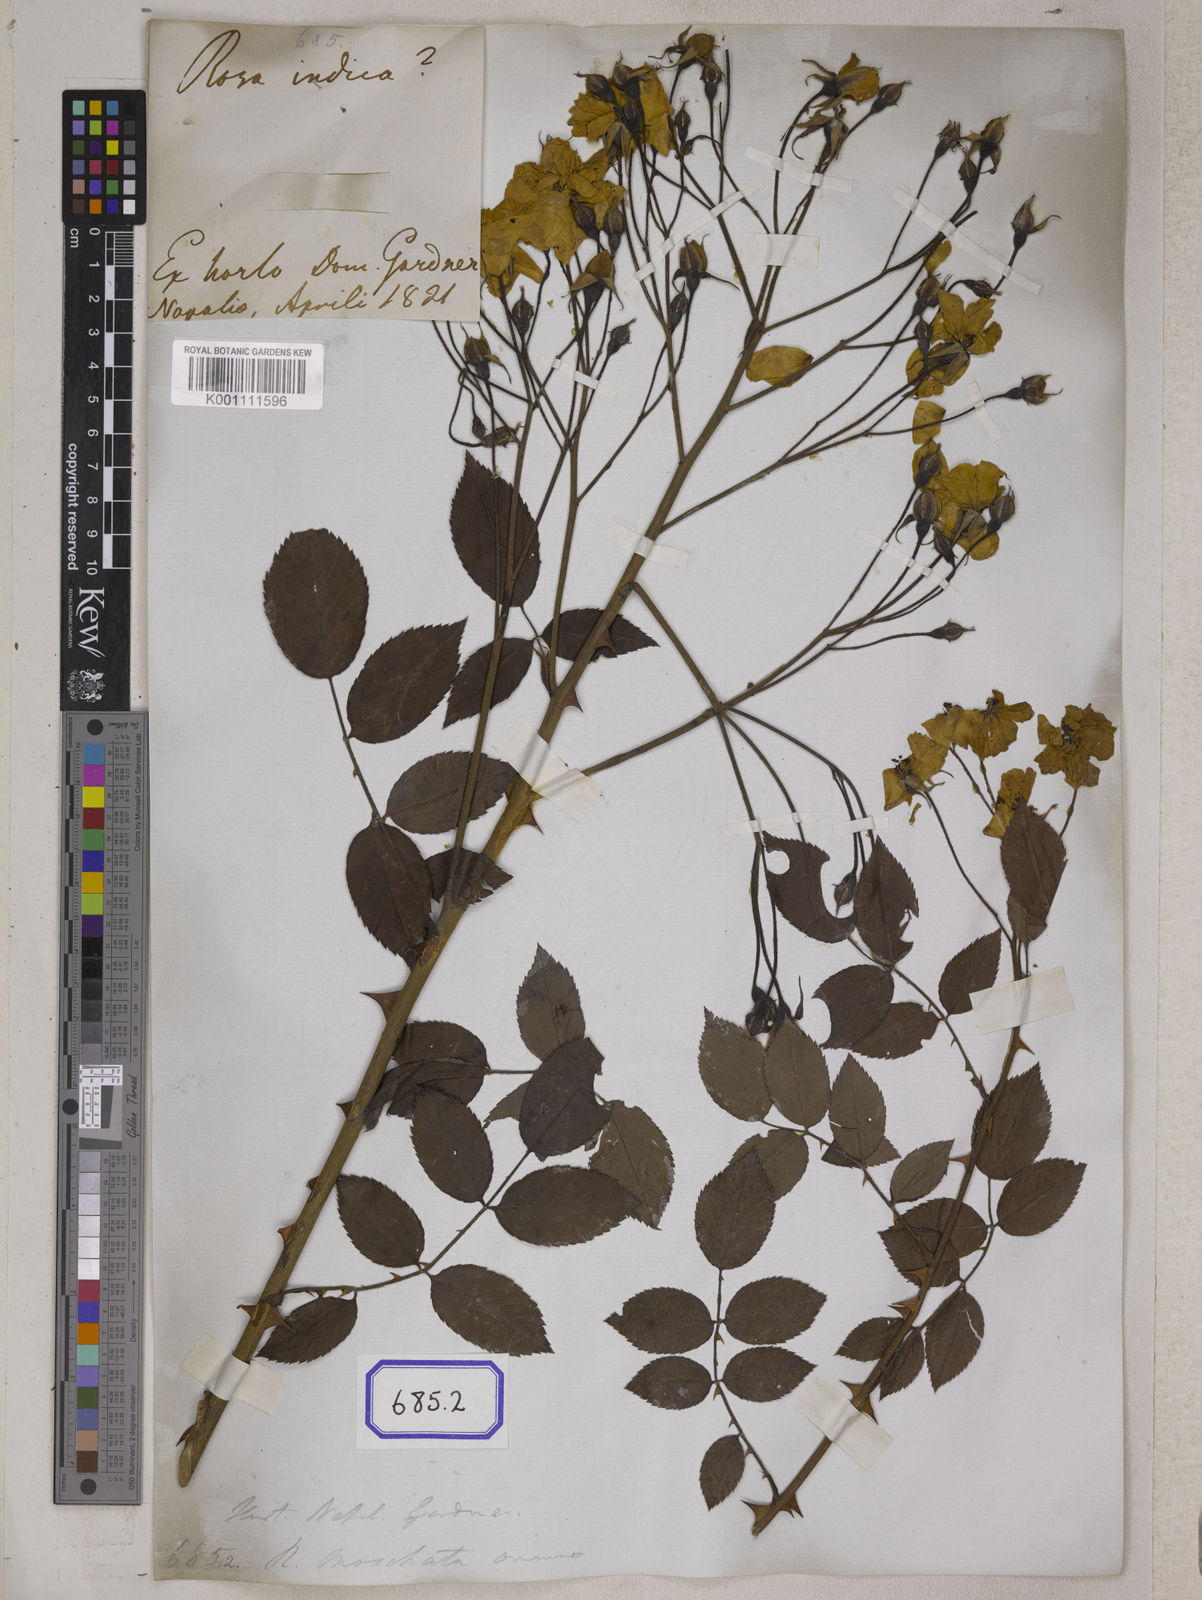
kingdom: Plantae
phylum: Tracheophyta
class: Magnoliopsida
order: Rosales
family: Rosaceae
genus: Rosa
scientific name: Rosa indica
